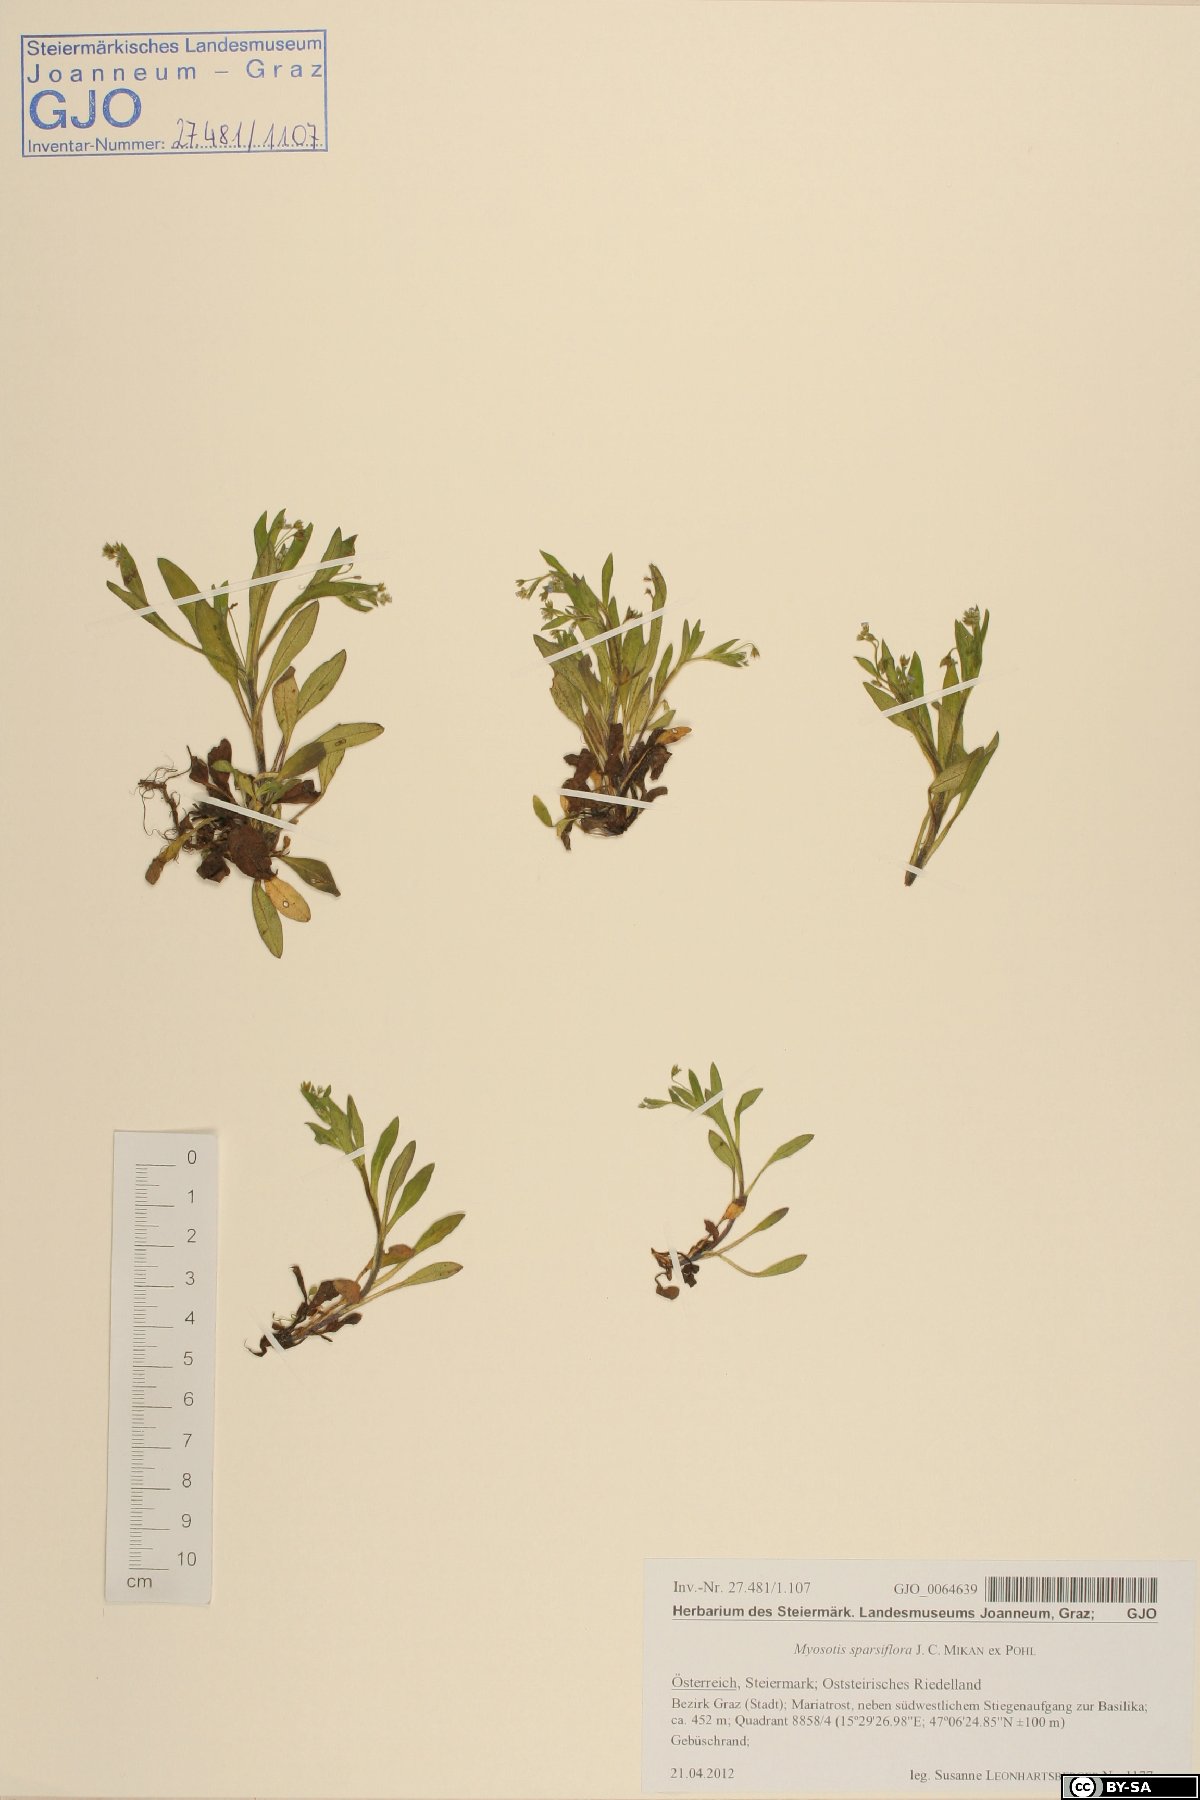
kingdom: Plantae
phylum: Tracheophyta
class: Magnoliopsida
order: Boraginales
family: Boraginaceae
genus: Myosotis
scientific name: Myosotis sparsiflora
